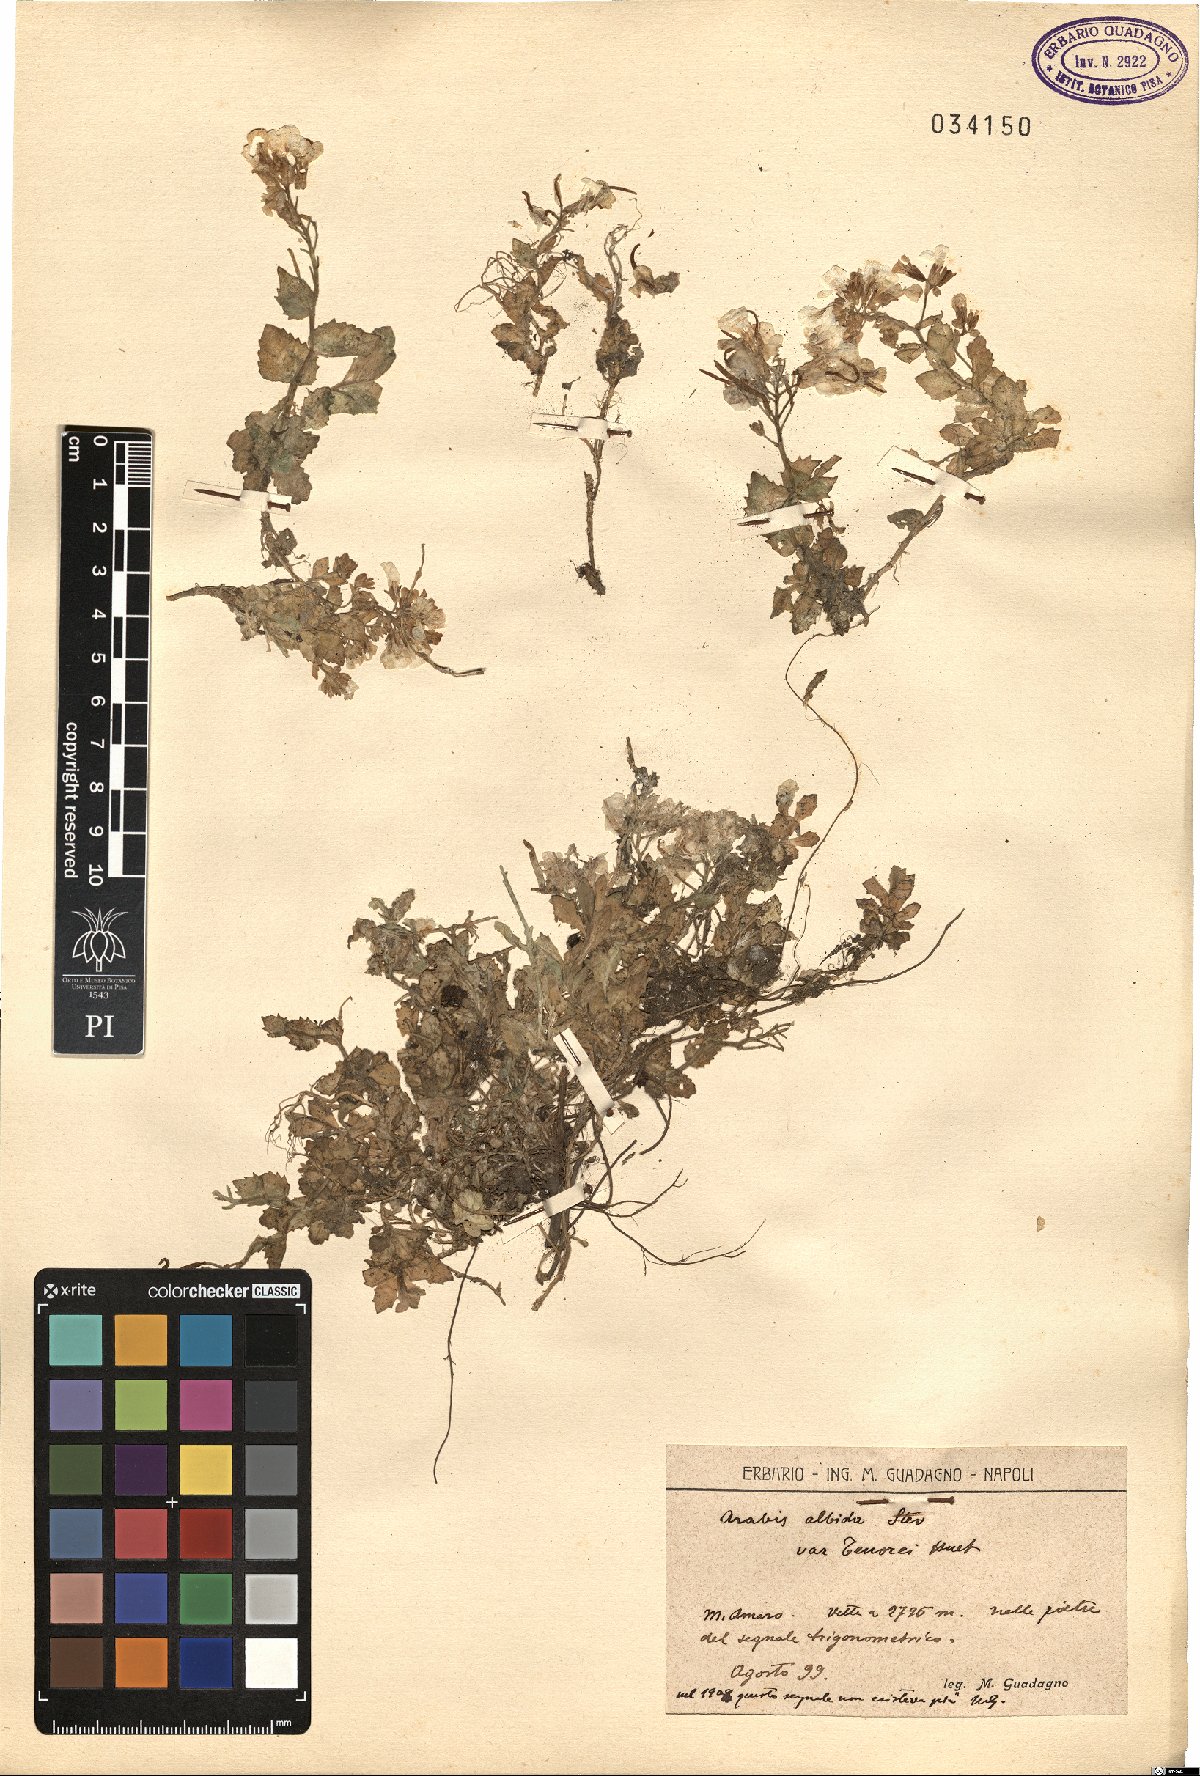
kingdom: Plantae
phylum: Tracheophyta
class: Magnoliopsida
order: Brassicales
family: Brassicaceae
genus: Arabis
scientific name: Arabis
